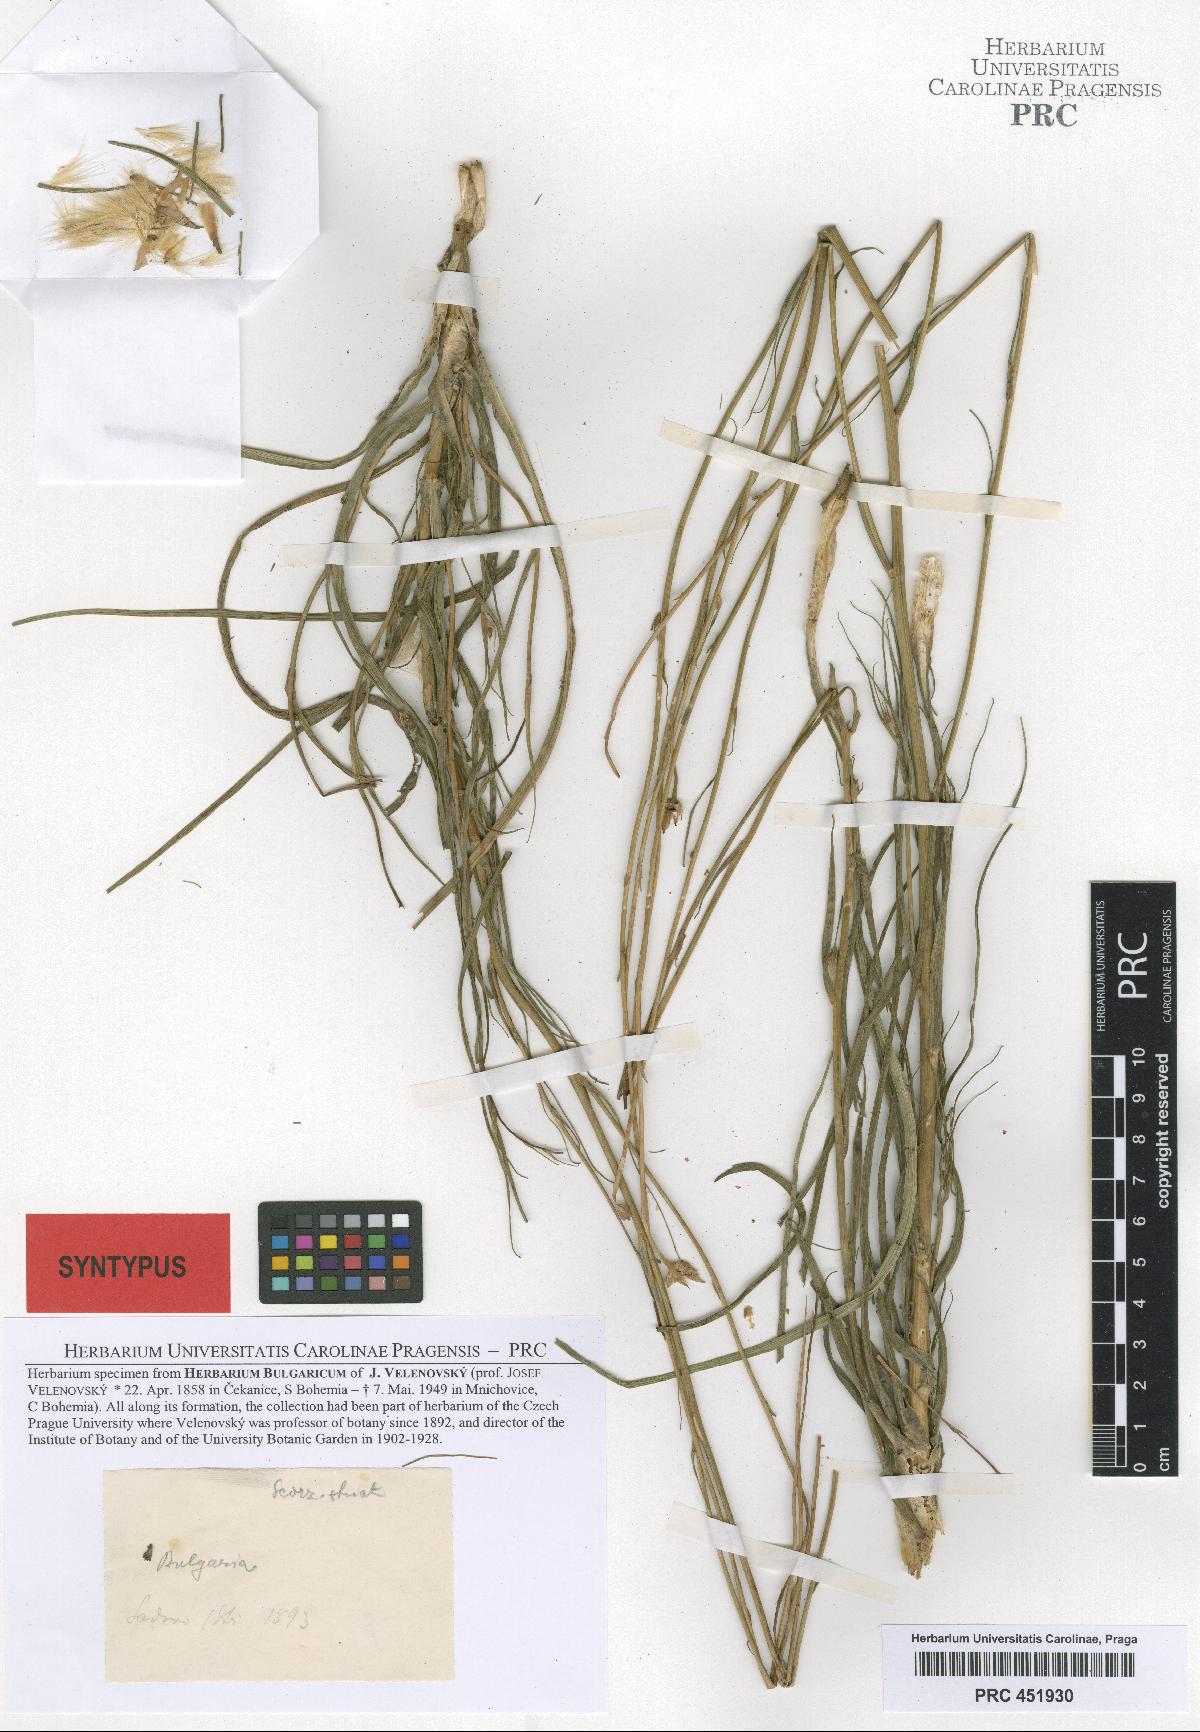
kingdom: Plantae
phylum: Tracheophyta
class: Magnoliopsida
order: Asterales
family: Asteraceae
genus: Pseudopodospermum
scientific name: Pseudopodospermum tauricum
